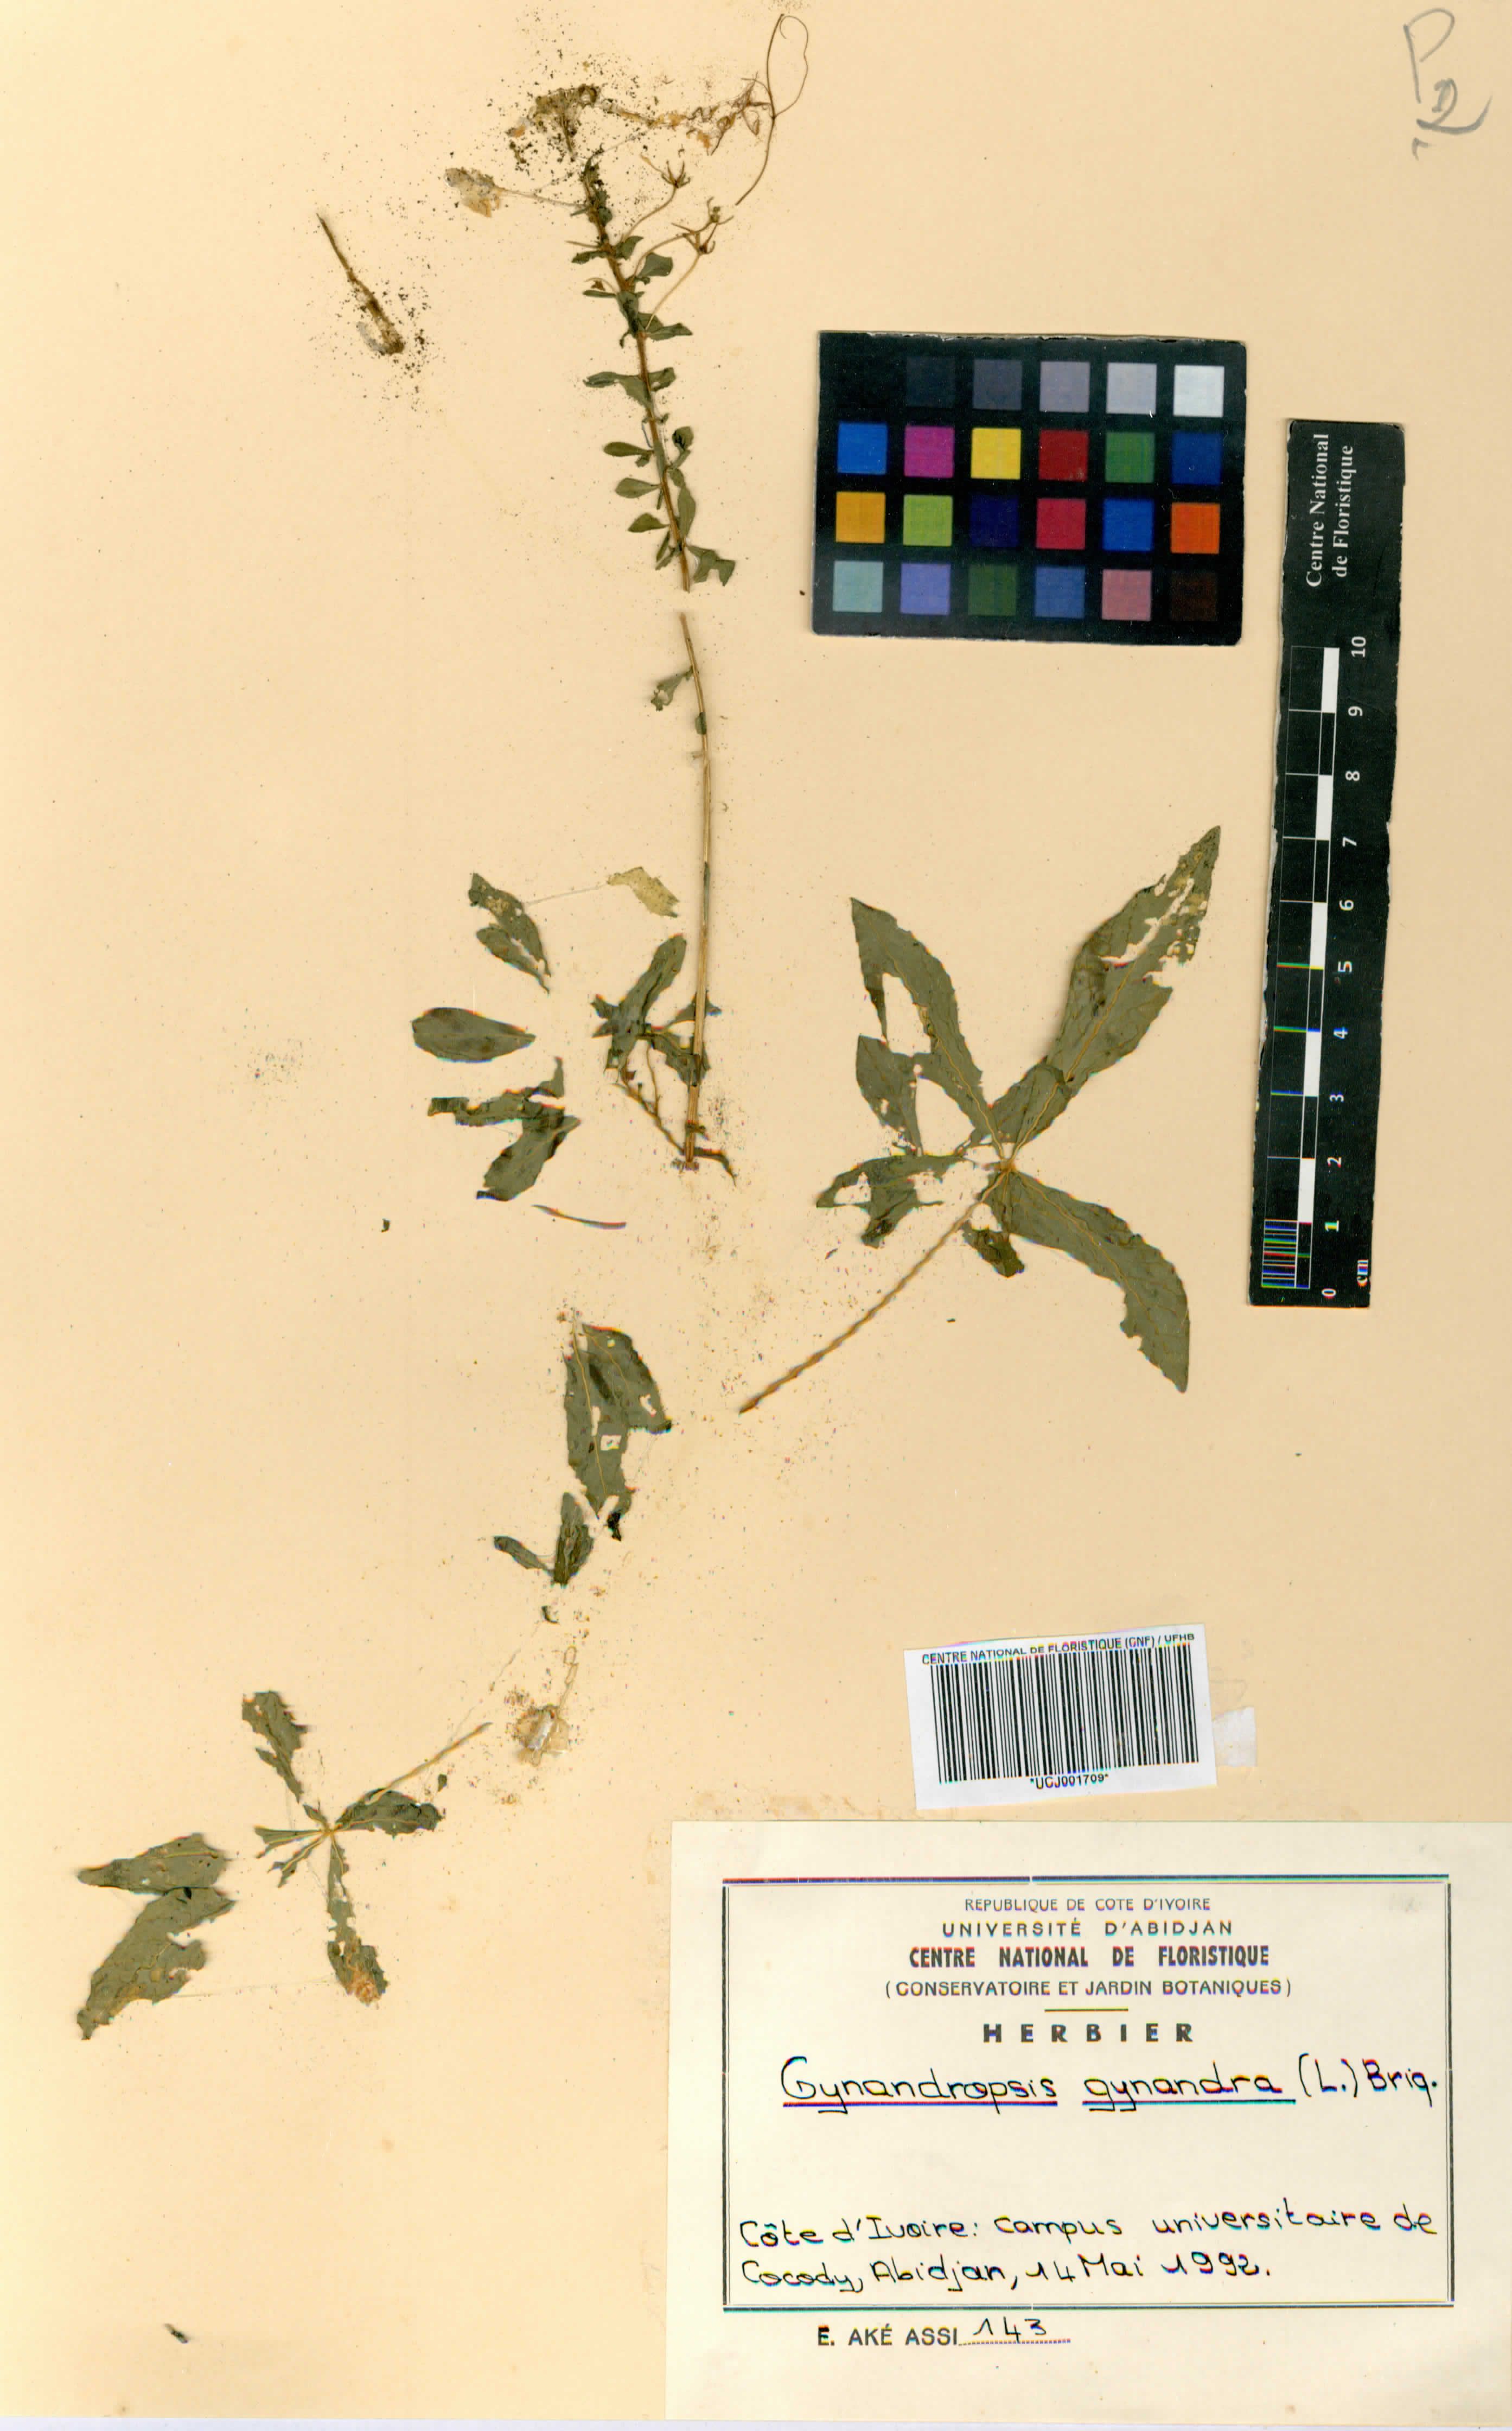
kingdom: Plantae
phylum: Tracheophyta
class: Magnoliopsida
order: Brassicales
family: Cleomaceae
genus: Gynandropsis
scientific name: Gynandropsis gynandra
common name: Spiderwisp
